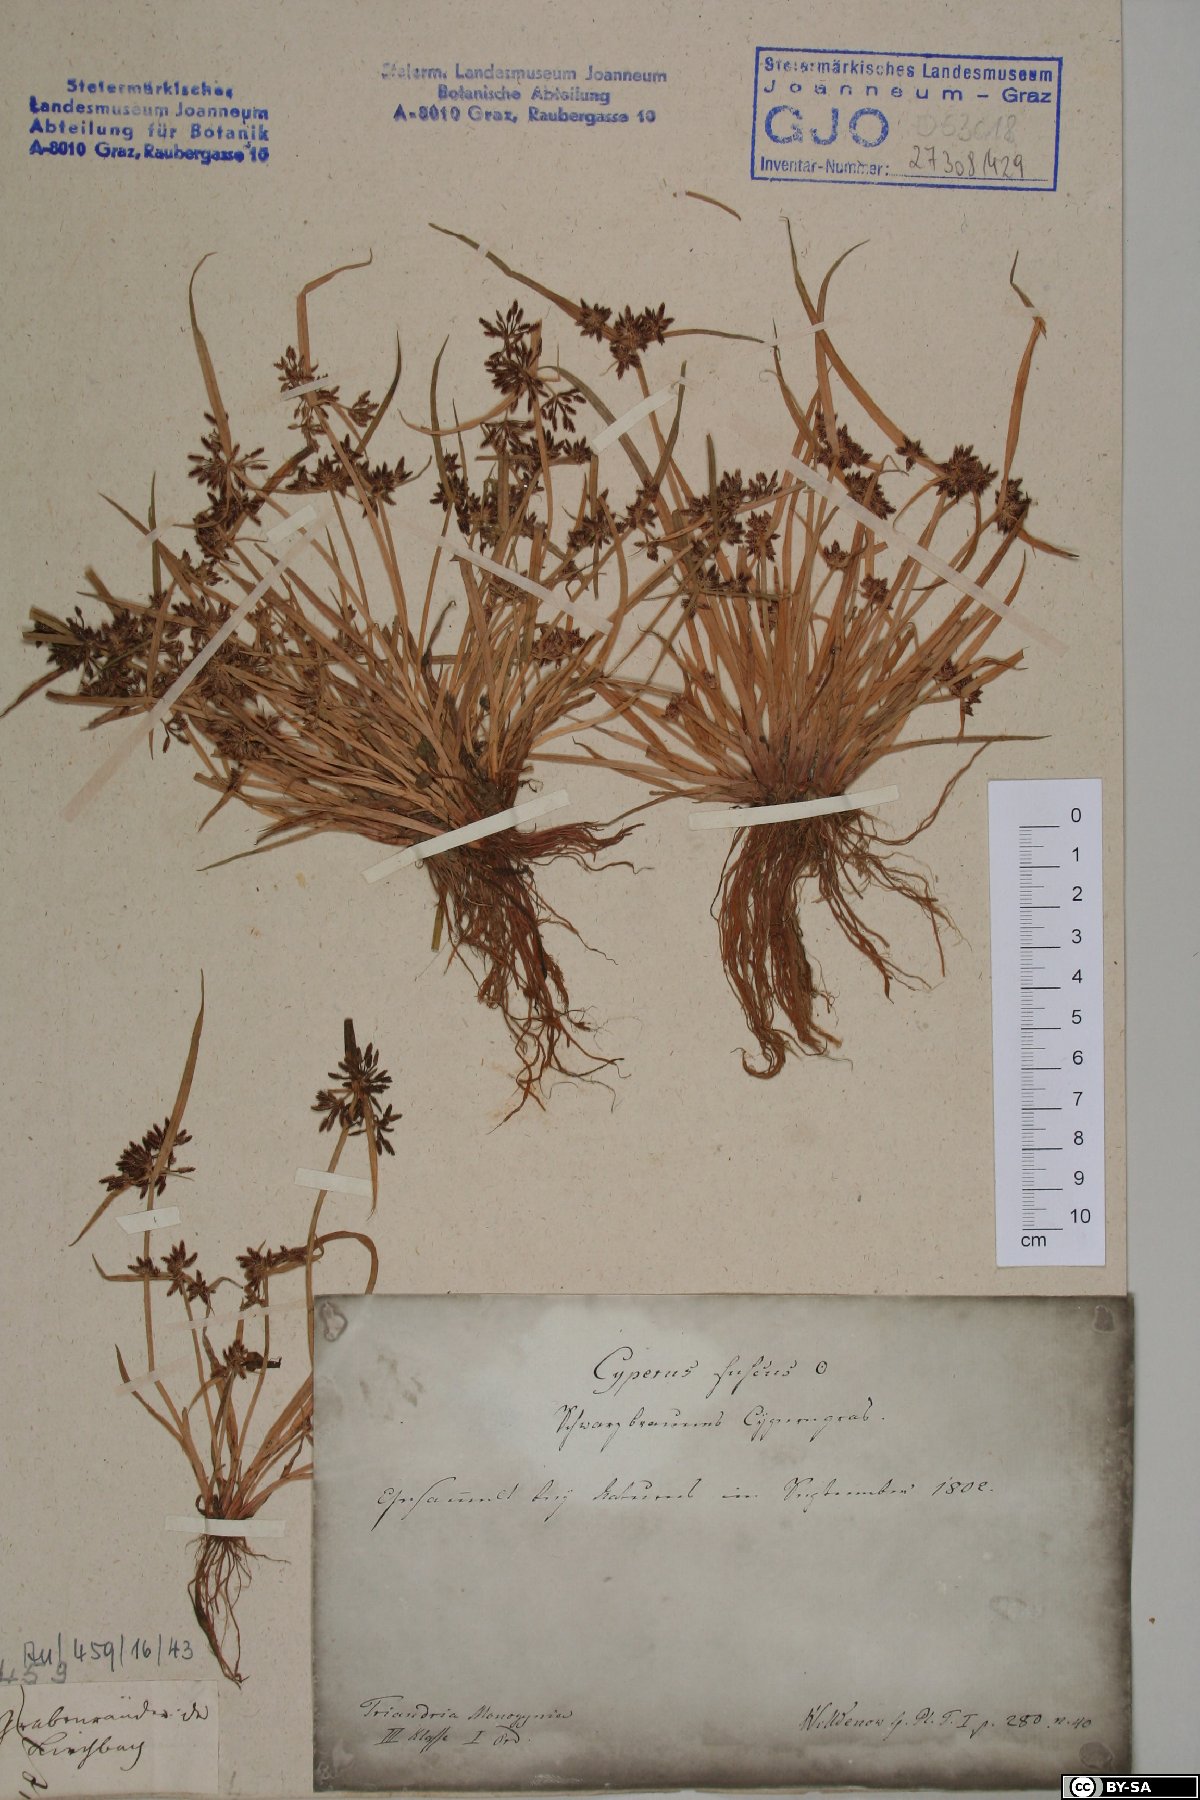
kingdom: Plantae
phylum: Tracheophyta
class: Liliopsida
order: Poales
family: Cyperaceae
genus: Cyperus
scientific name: Cyperus fuscus
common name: Brown galingale
